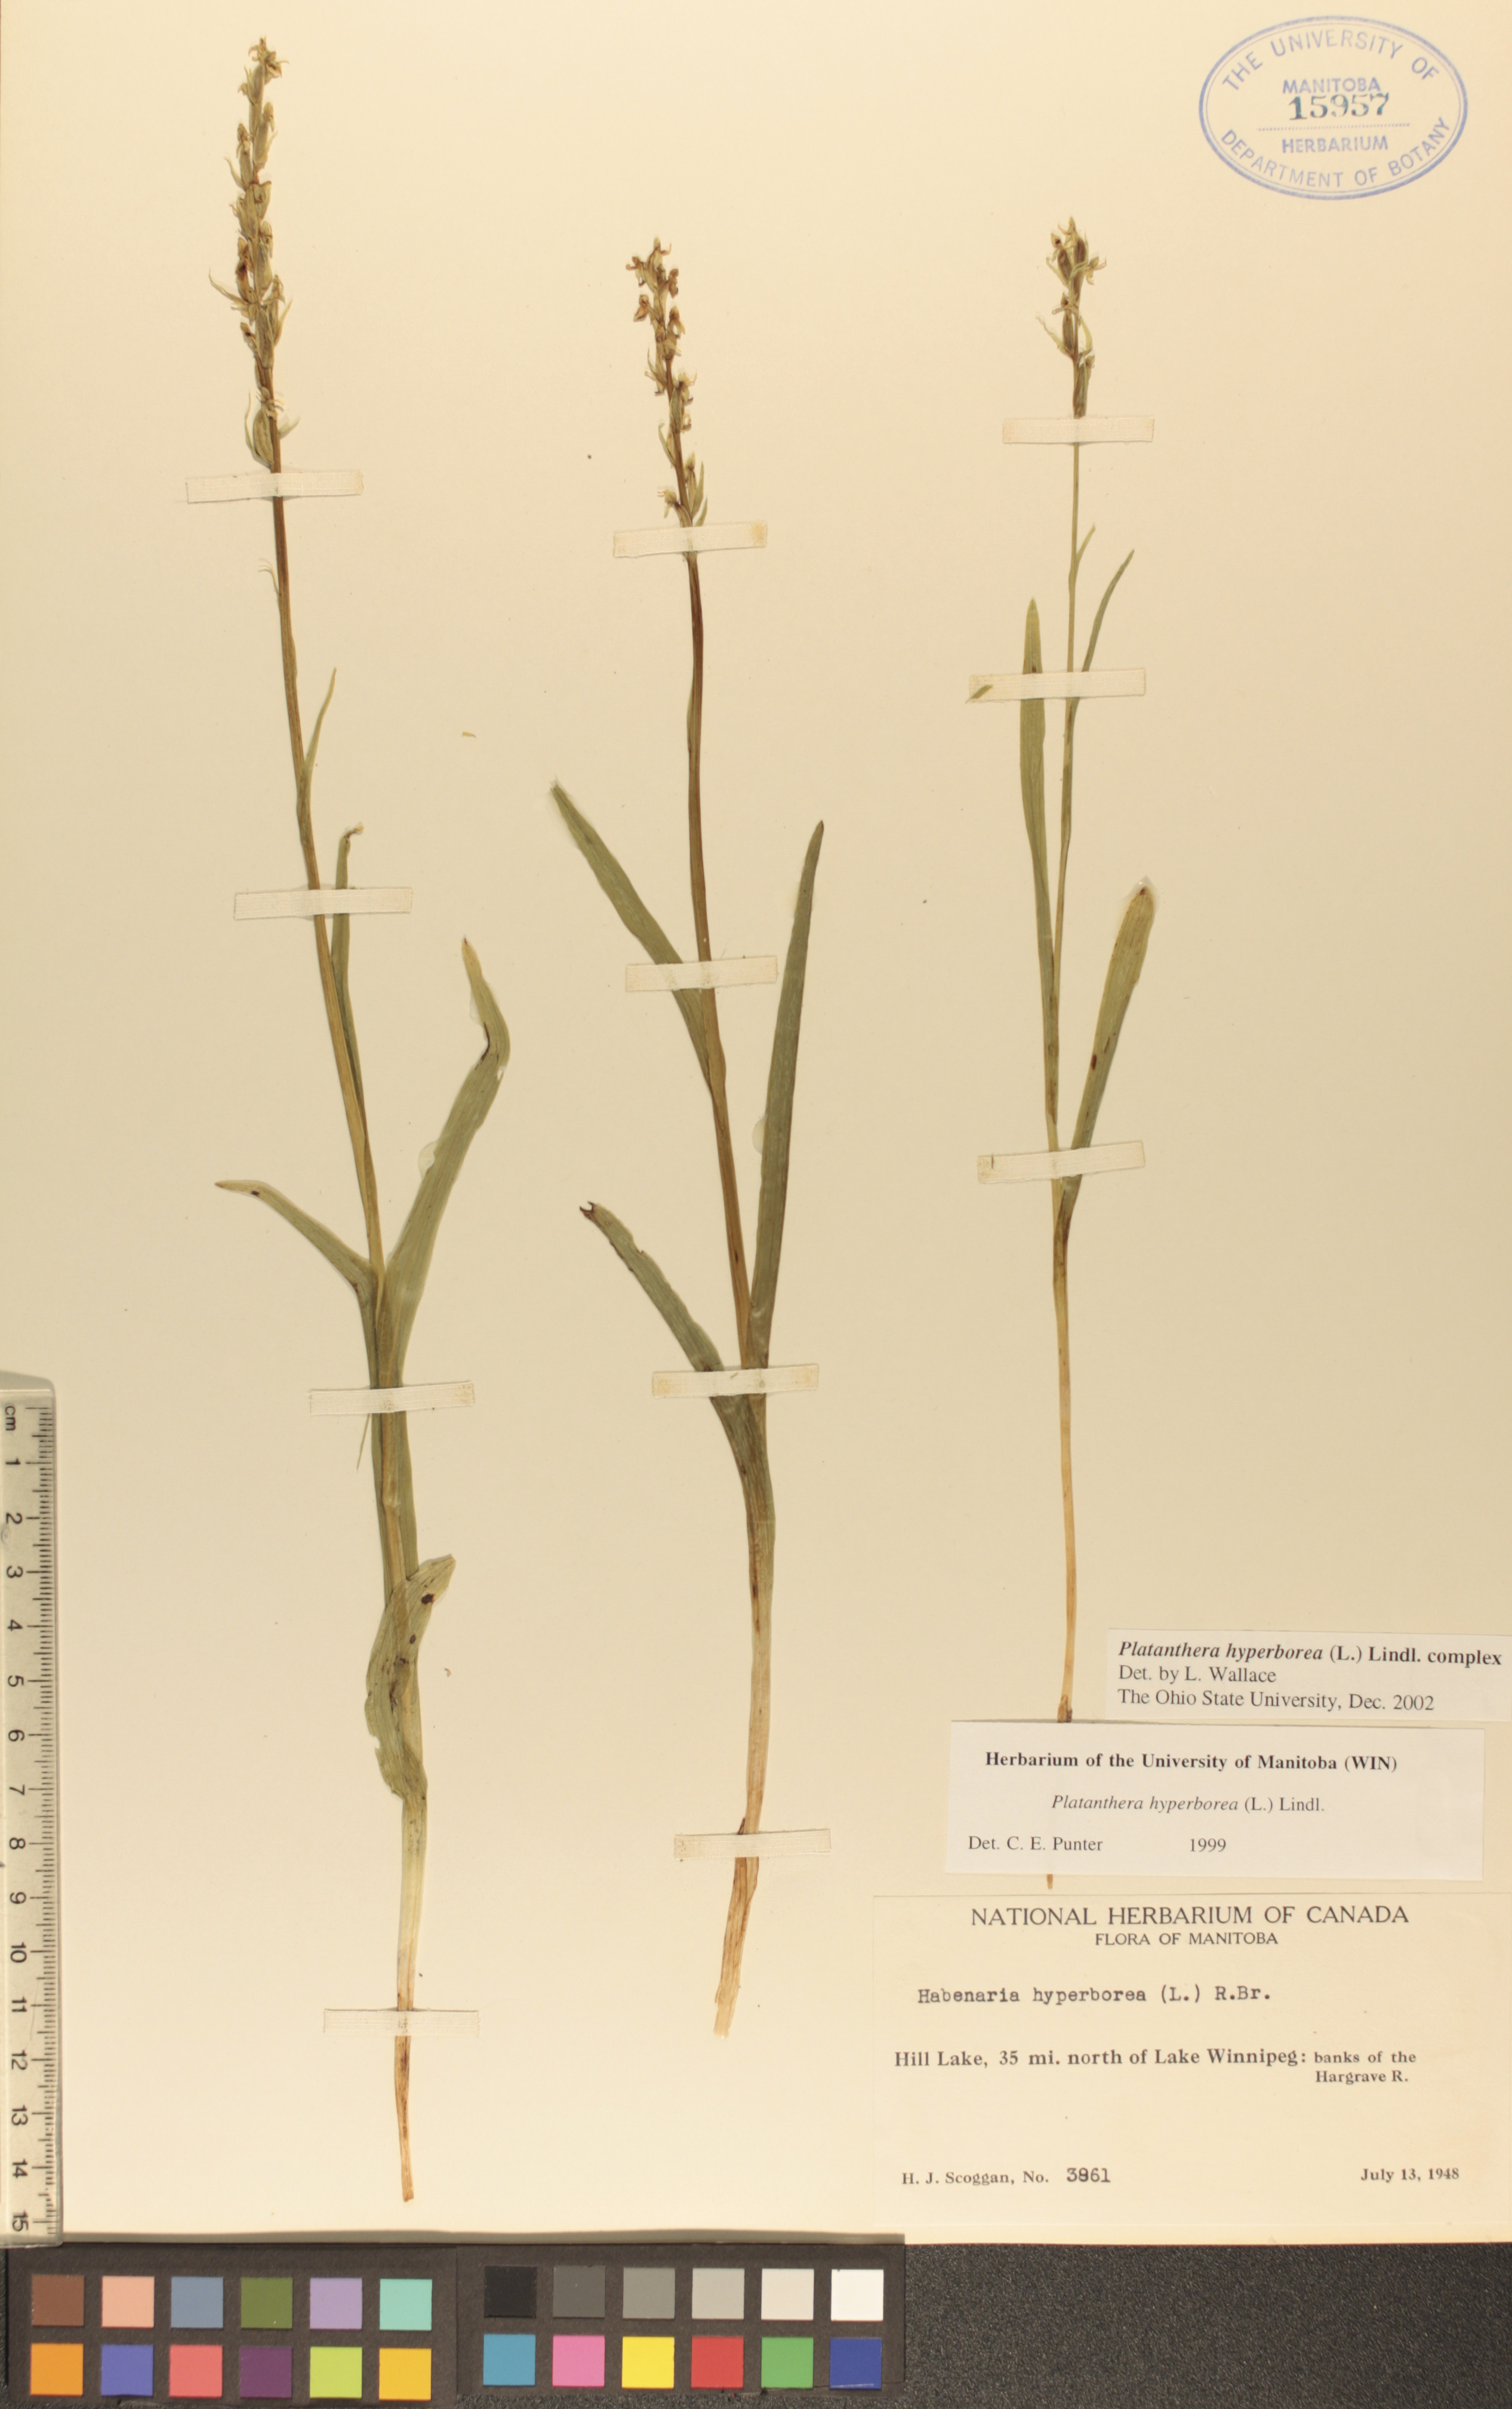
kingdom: Plantae
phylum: Tracheophyta
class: Liliopsida
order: Asparagales
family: Orchidaceae
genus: Platanthera
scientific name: Platanthera hyperborea
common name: Northern green orchid
